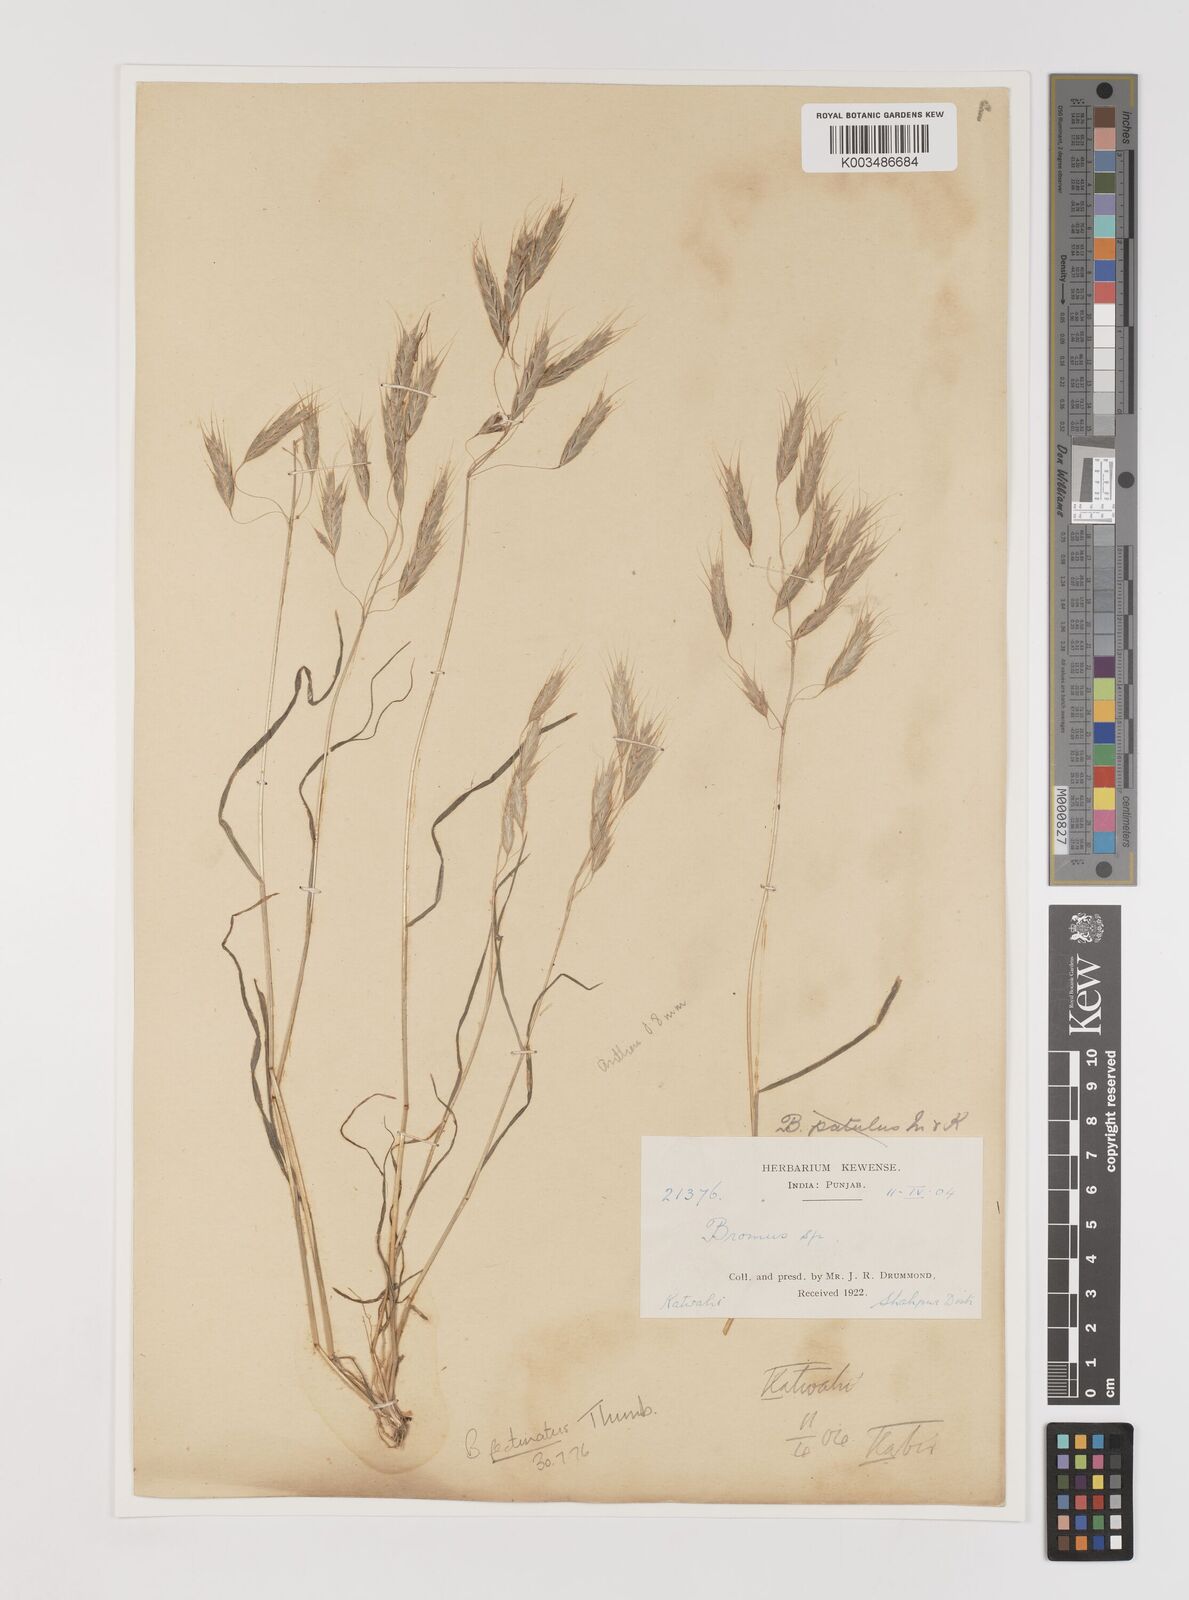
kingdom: Plantae
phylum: Tracheophyta
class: Liliopsida
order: Poales
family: Poaceae
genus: Bromus
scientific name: Bromus pectinatus
